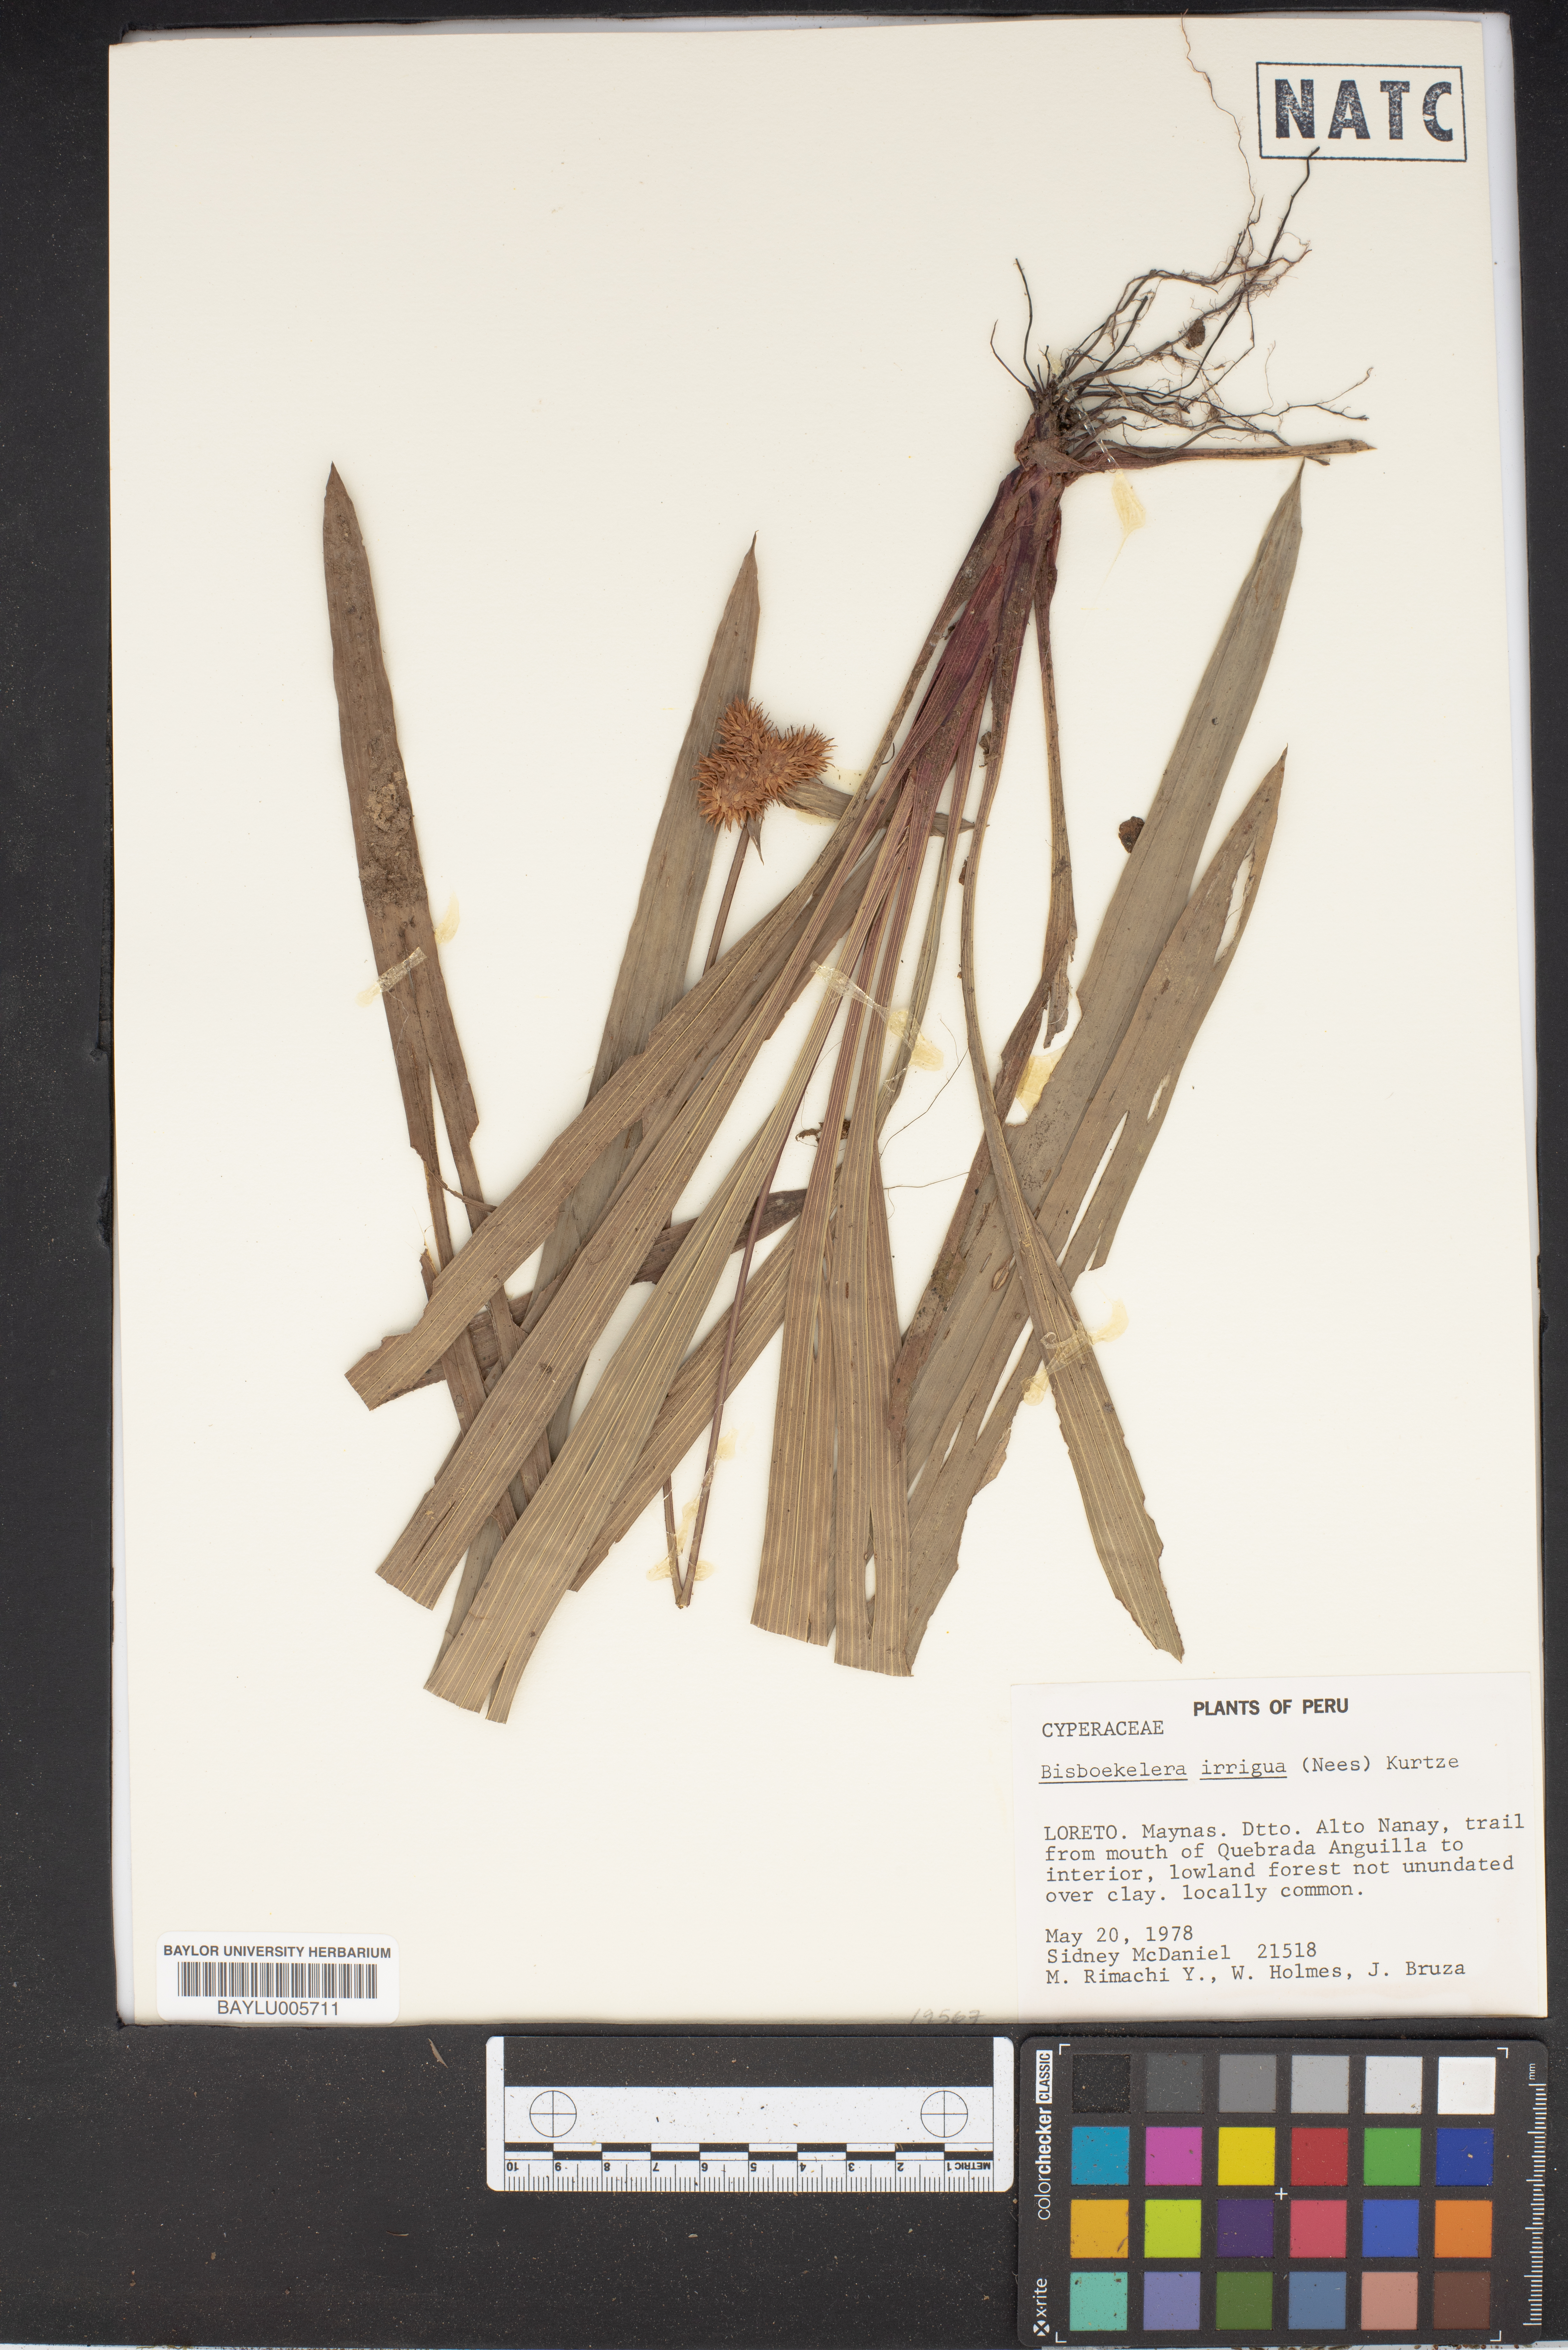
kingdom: Plantae
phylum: Tracheophyta
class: Liliopsida
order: Poales
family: Cyperaceae
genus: Bisboeckelera
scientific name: Bisboeckelera irrigua
